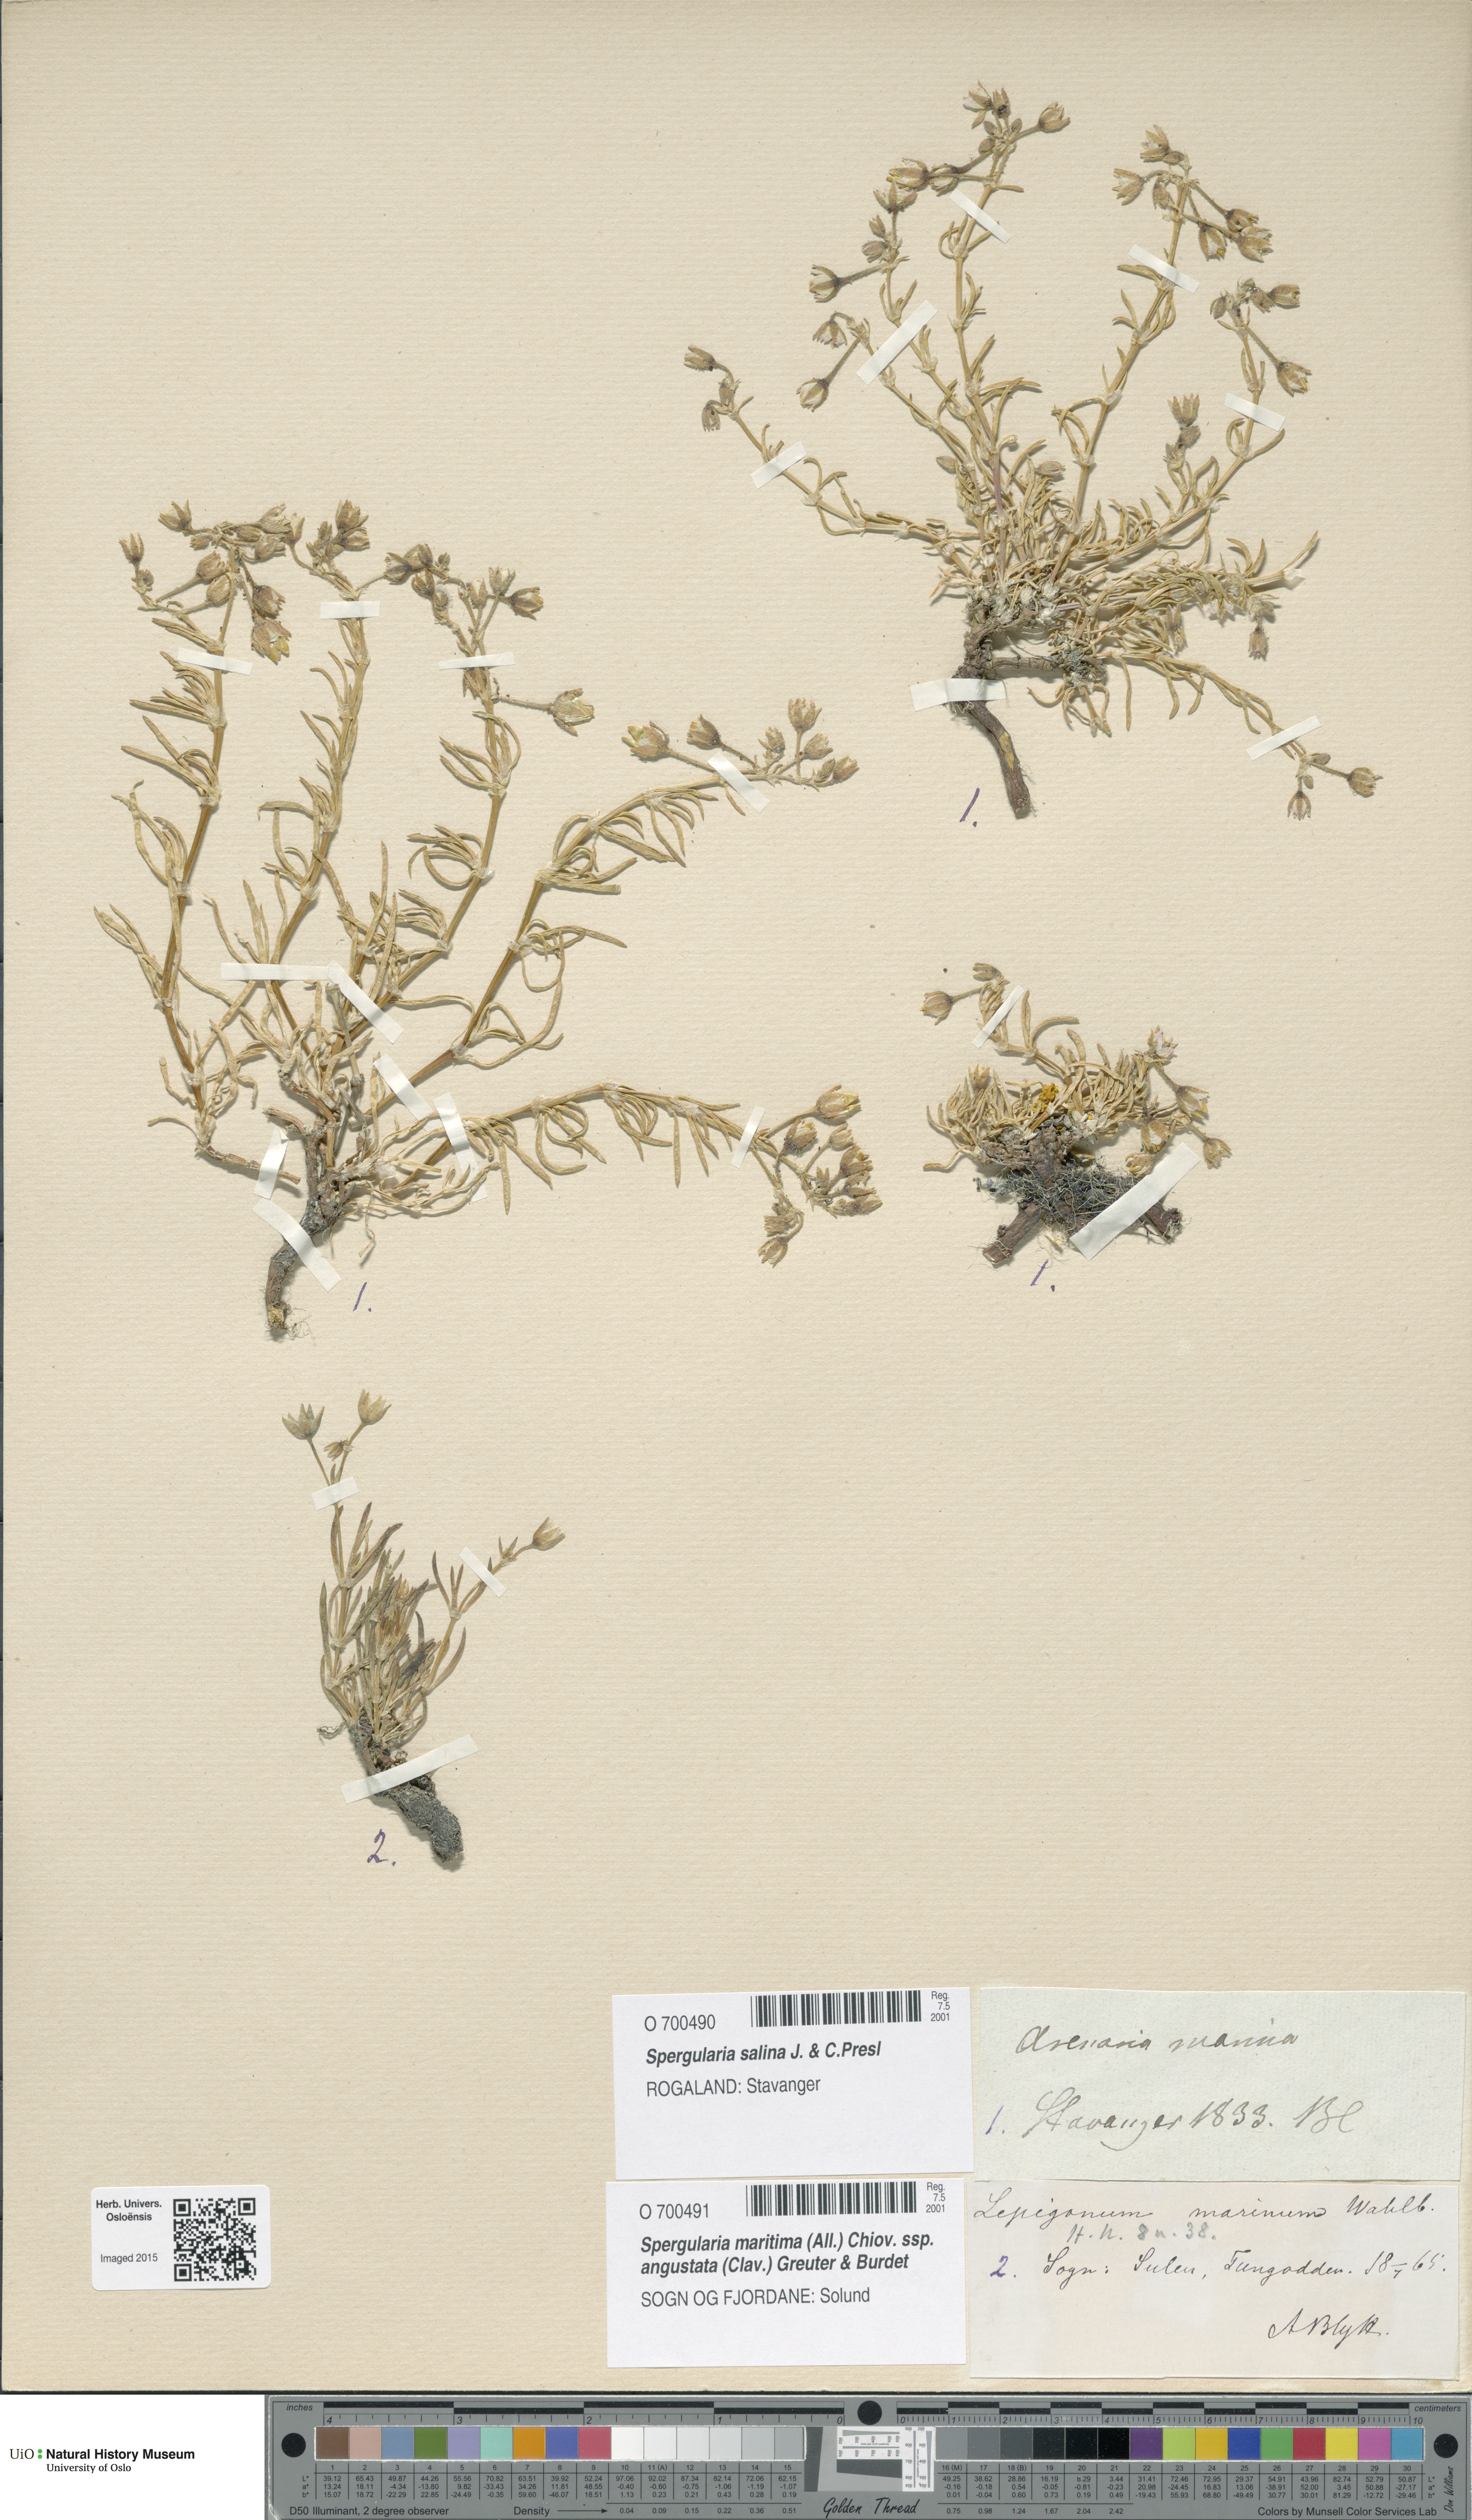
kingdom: Plantae
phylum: Tracheophyta
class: Magnoliopsida
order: Caryophyllales
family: Caryophyllaceae
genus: Spergularia
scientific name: Spergularia marina
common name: Lesser sea-spurrey
